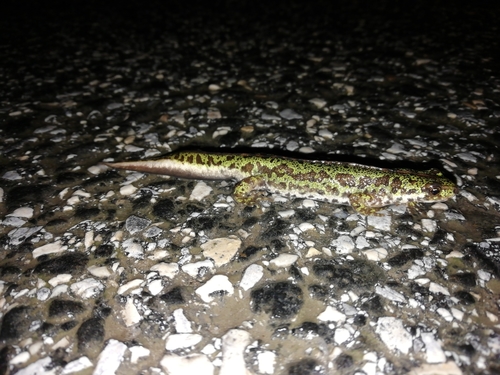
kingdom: Animalia
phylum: Chordata
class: Amphibia
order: Caudata
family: Salamandridae
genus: Triturus
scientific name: Triturus marmoratus
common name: Marbled newt
